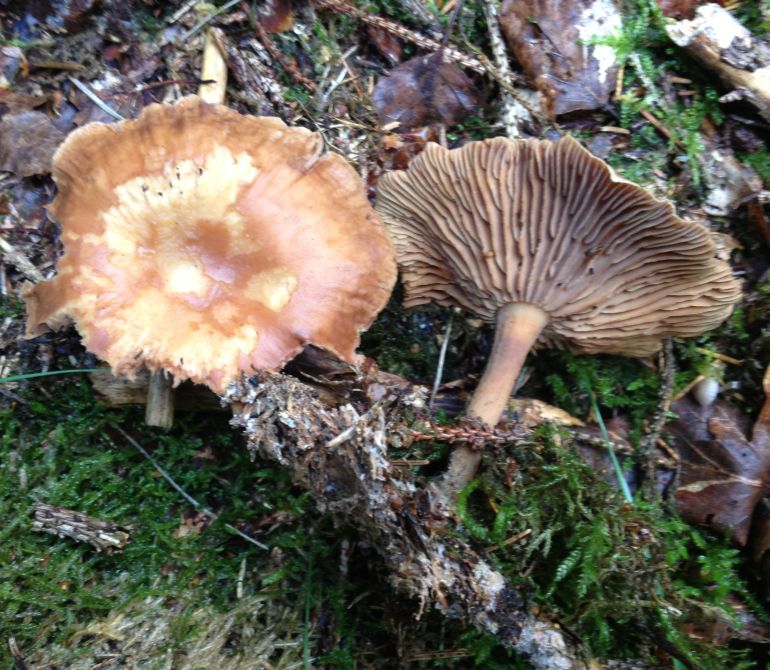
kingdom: Fungi
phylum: Basidiomycota
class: Agaricomycetes
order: Agaricales
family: Omphalotaceae
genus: Collybiopsis
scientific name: Collybiopsis peronata
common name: bestøvlet fladhat
